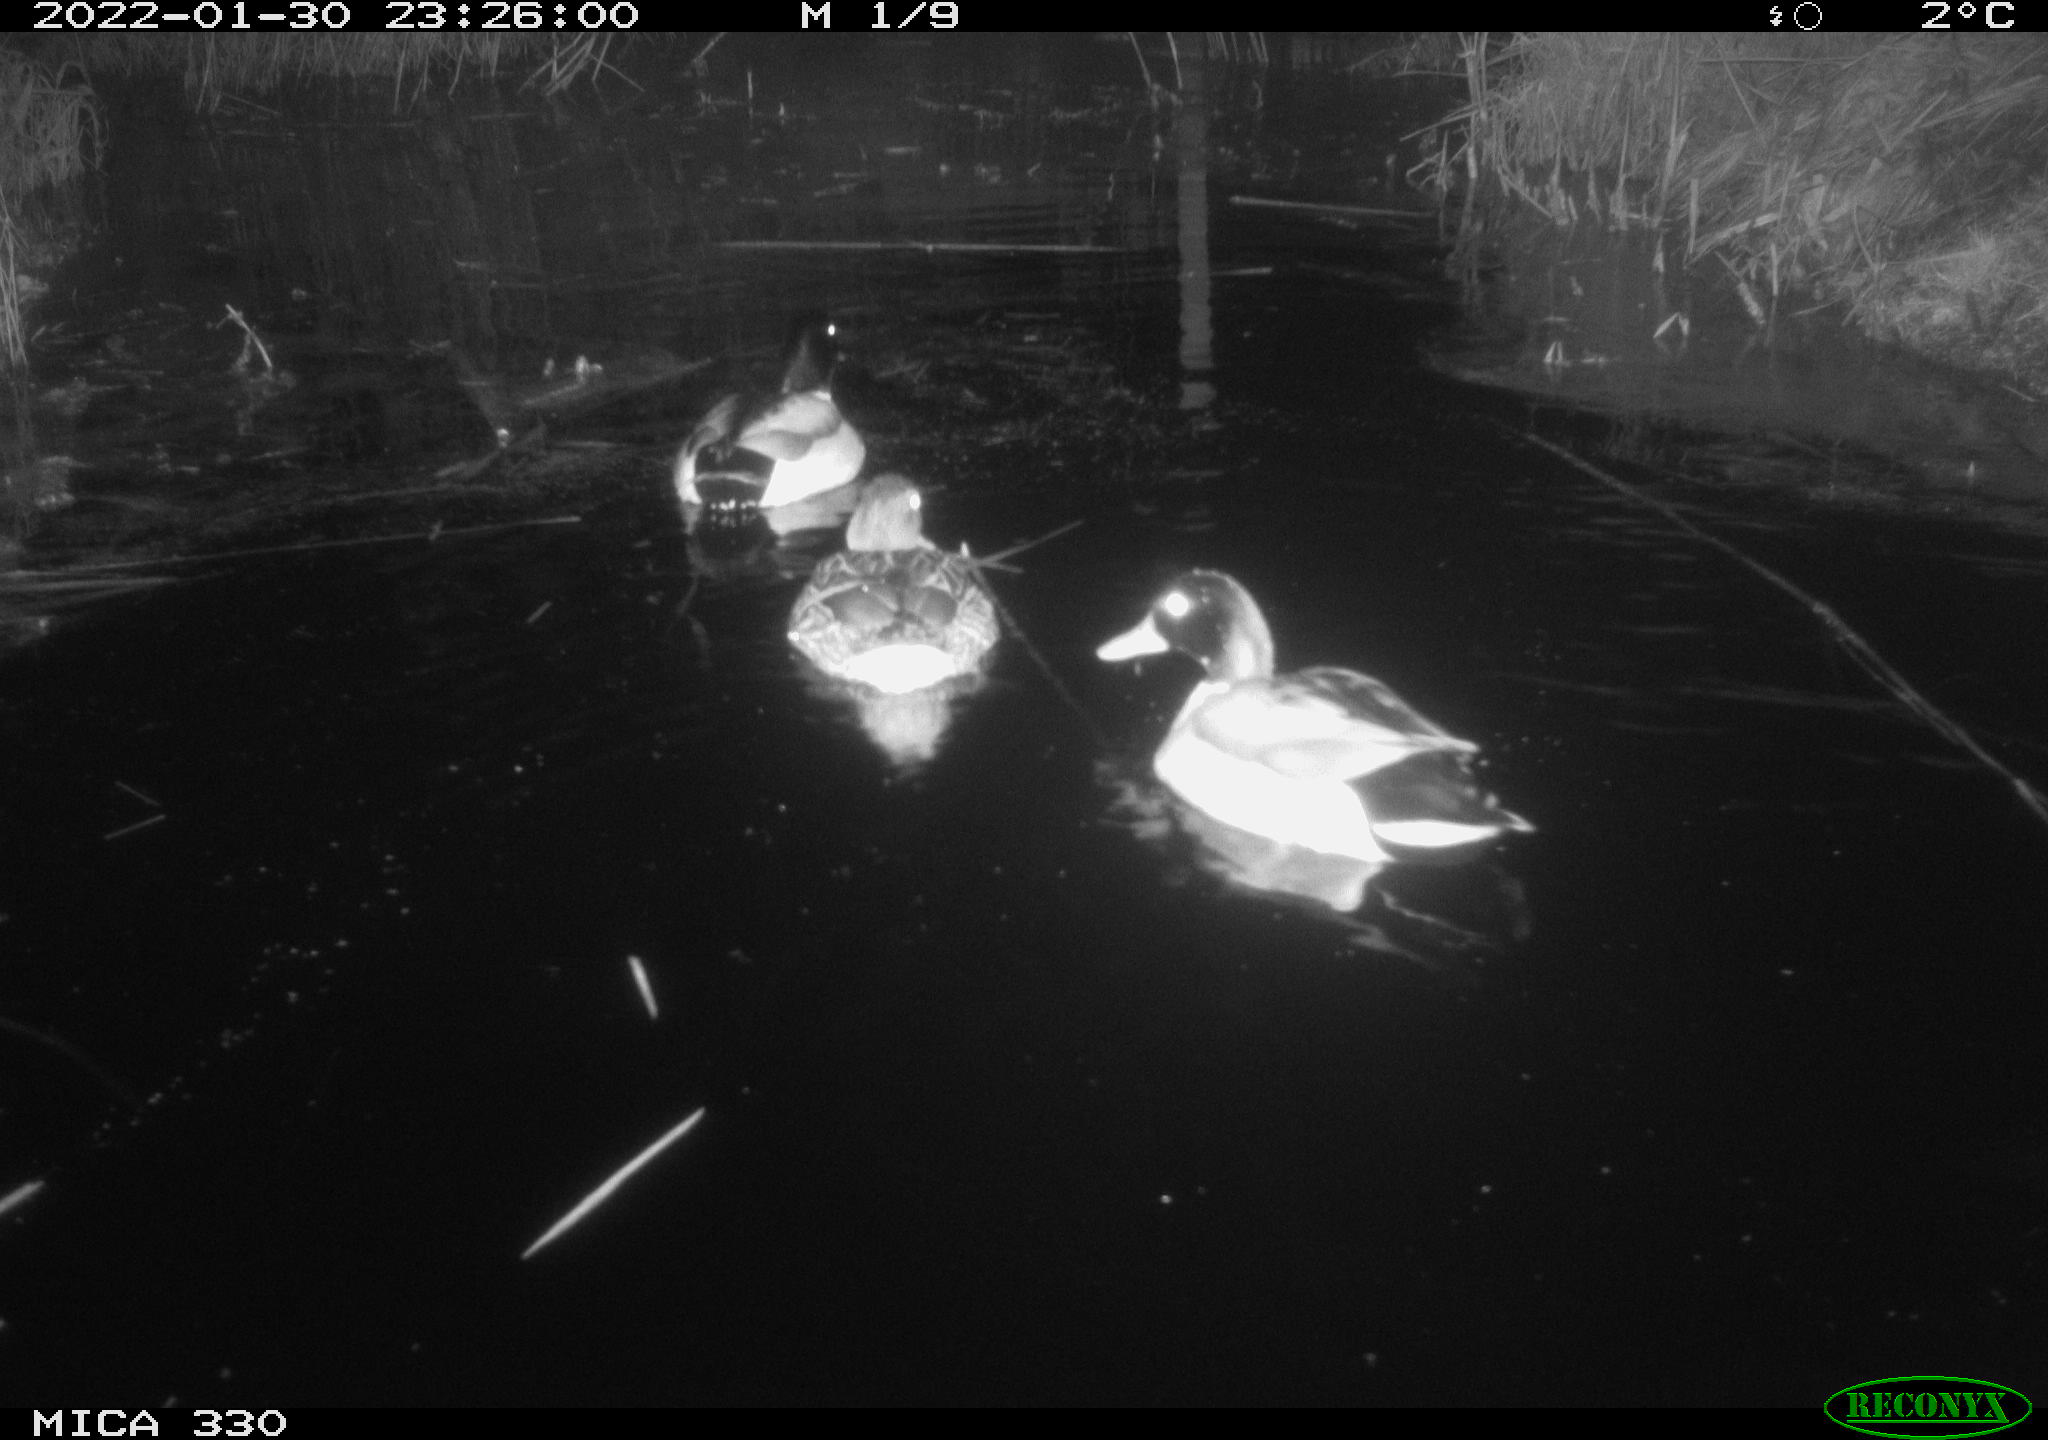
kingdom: Animalia
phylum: Chordata
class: Aves
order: Anseriformes
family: Anatidae
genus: Anas
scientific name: Anas platyrhynchos
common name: Mallard
